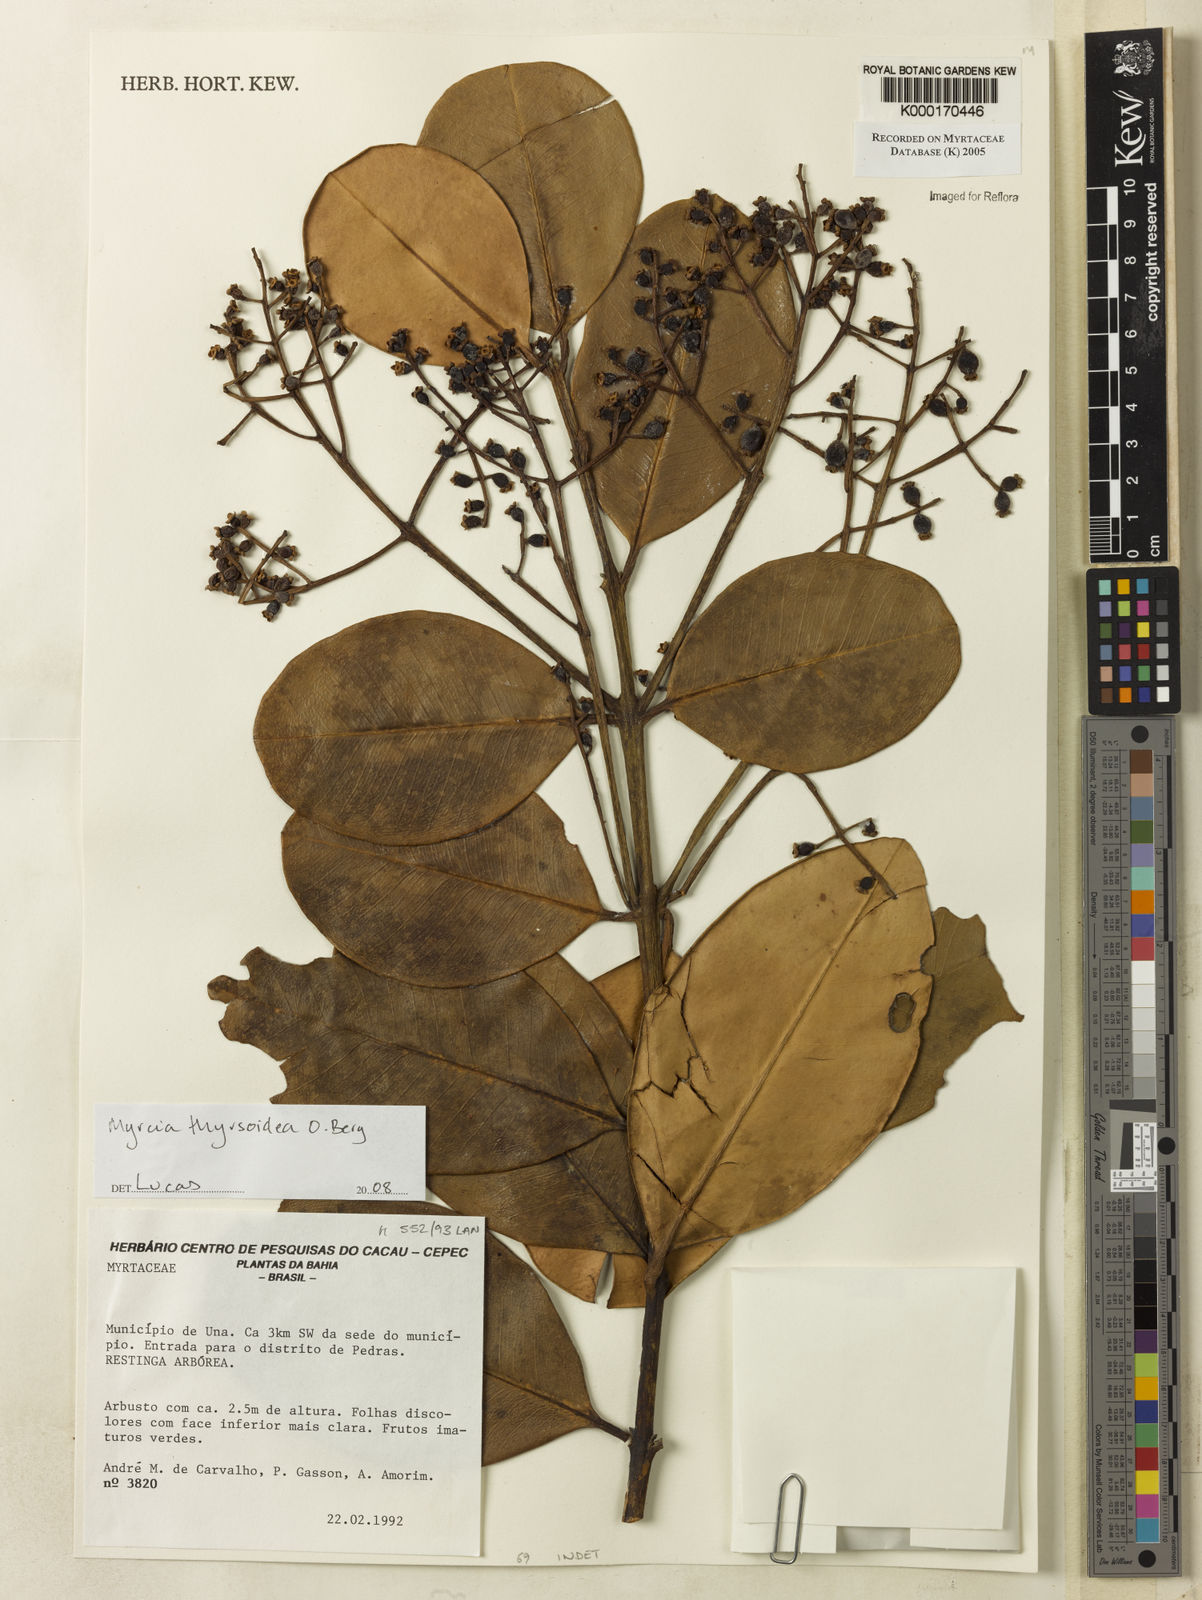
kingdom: Plantae
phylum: Tracheophyta
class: Magnoliopsida
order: Myrtales
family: Myrtaceae
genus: Myrcia
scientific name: Myrcia obovata
